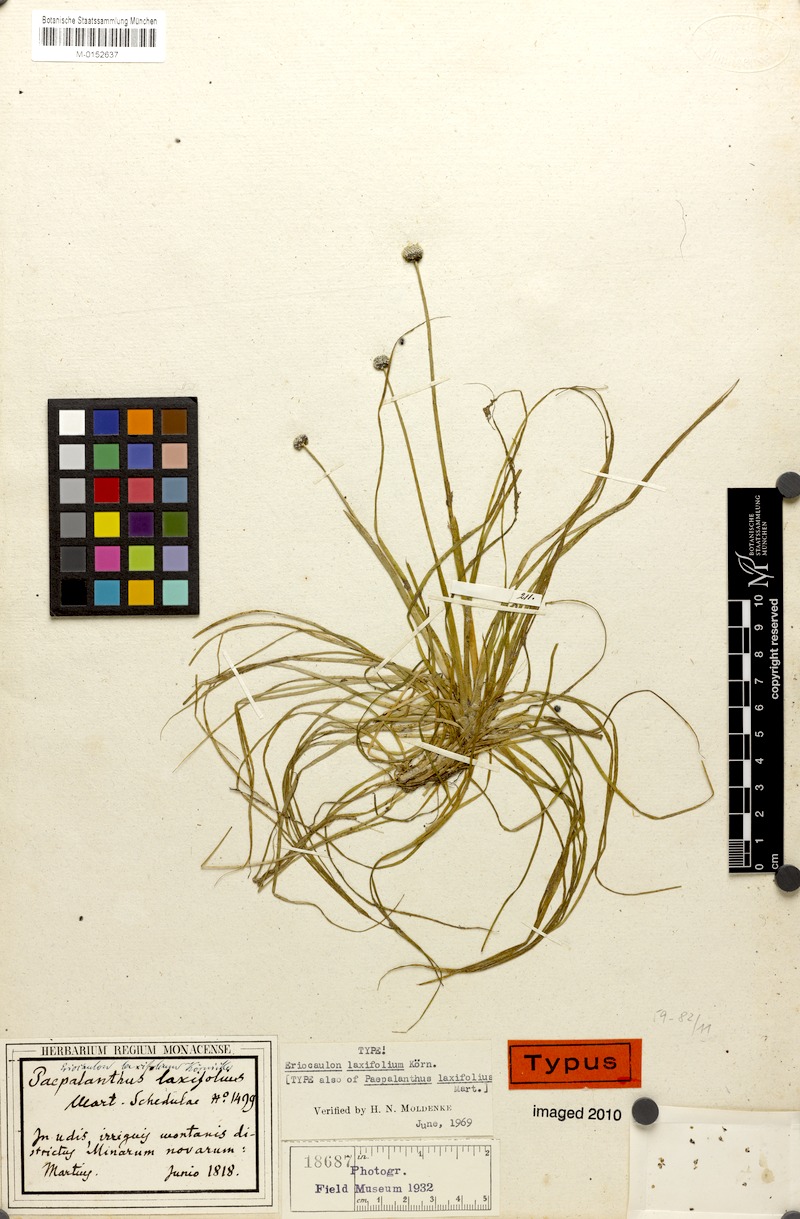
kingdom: Plantae
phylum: Tracheophyta
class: Liliopsida
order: Poales
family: Eriocaulaceae
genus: Eriocaulon
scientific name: Eriocaulon laxifolium
